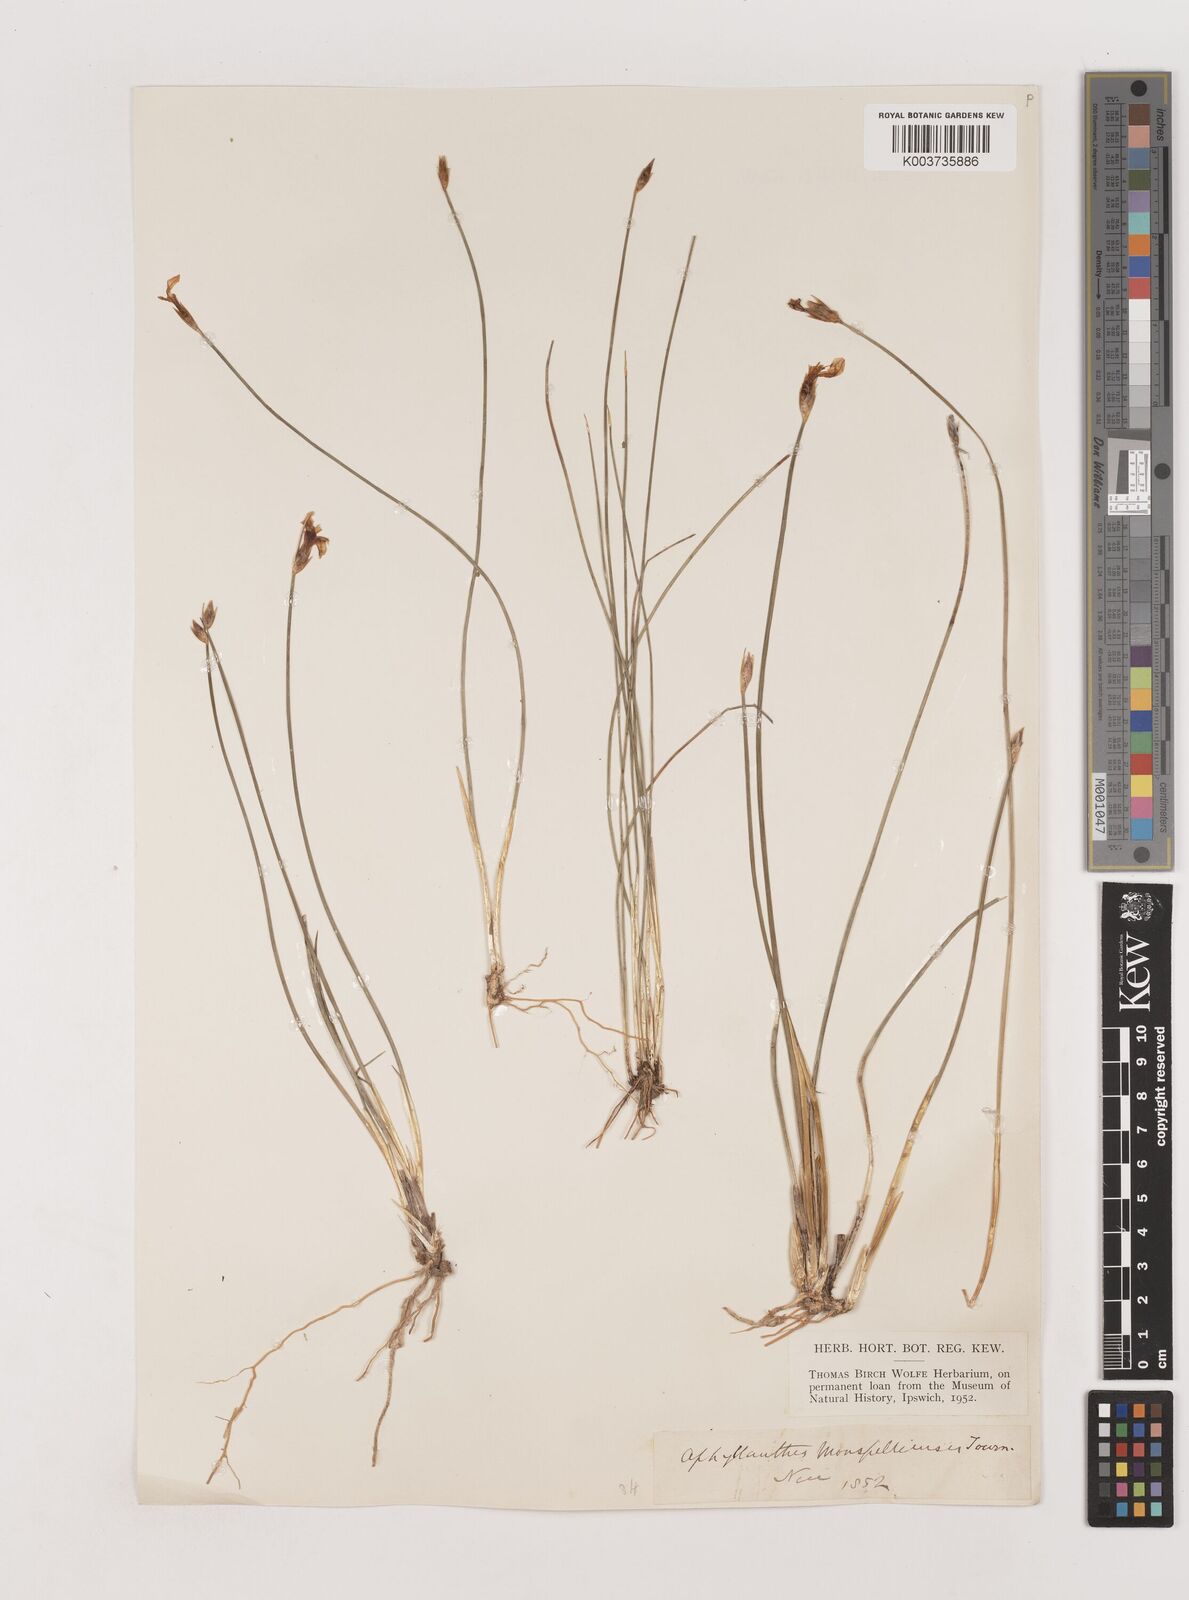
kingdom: Plantae
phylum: Tracheophyta
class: Liliopsida
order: Asparagales
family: Asparagaceae
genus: Aphyllanthes
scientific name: Aphyllanthes
